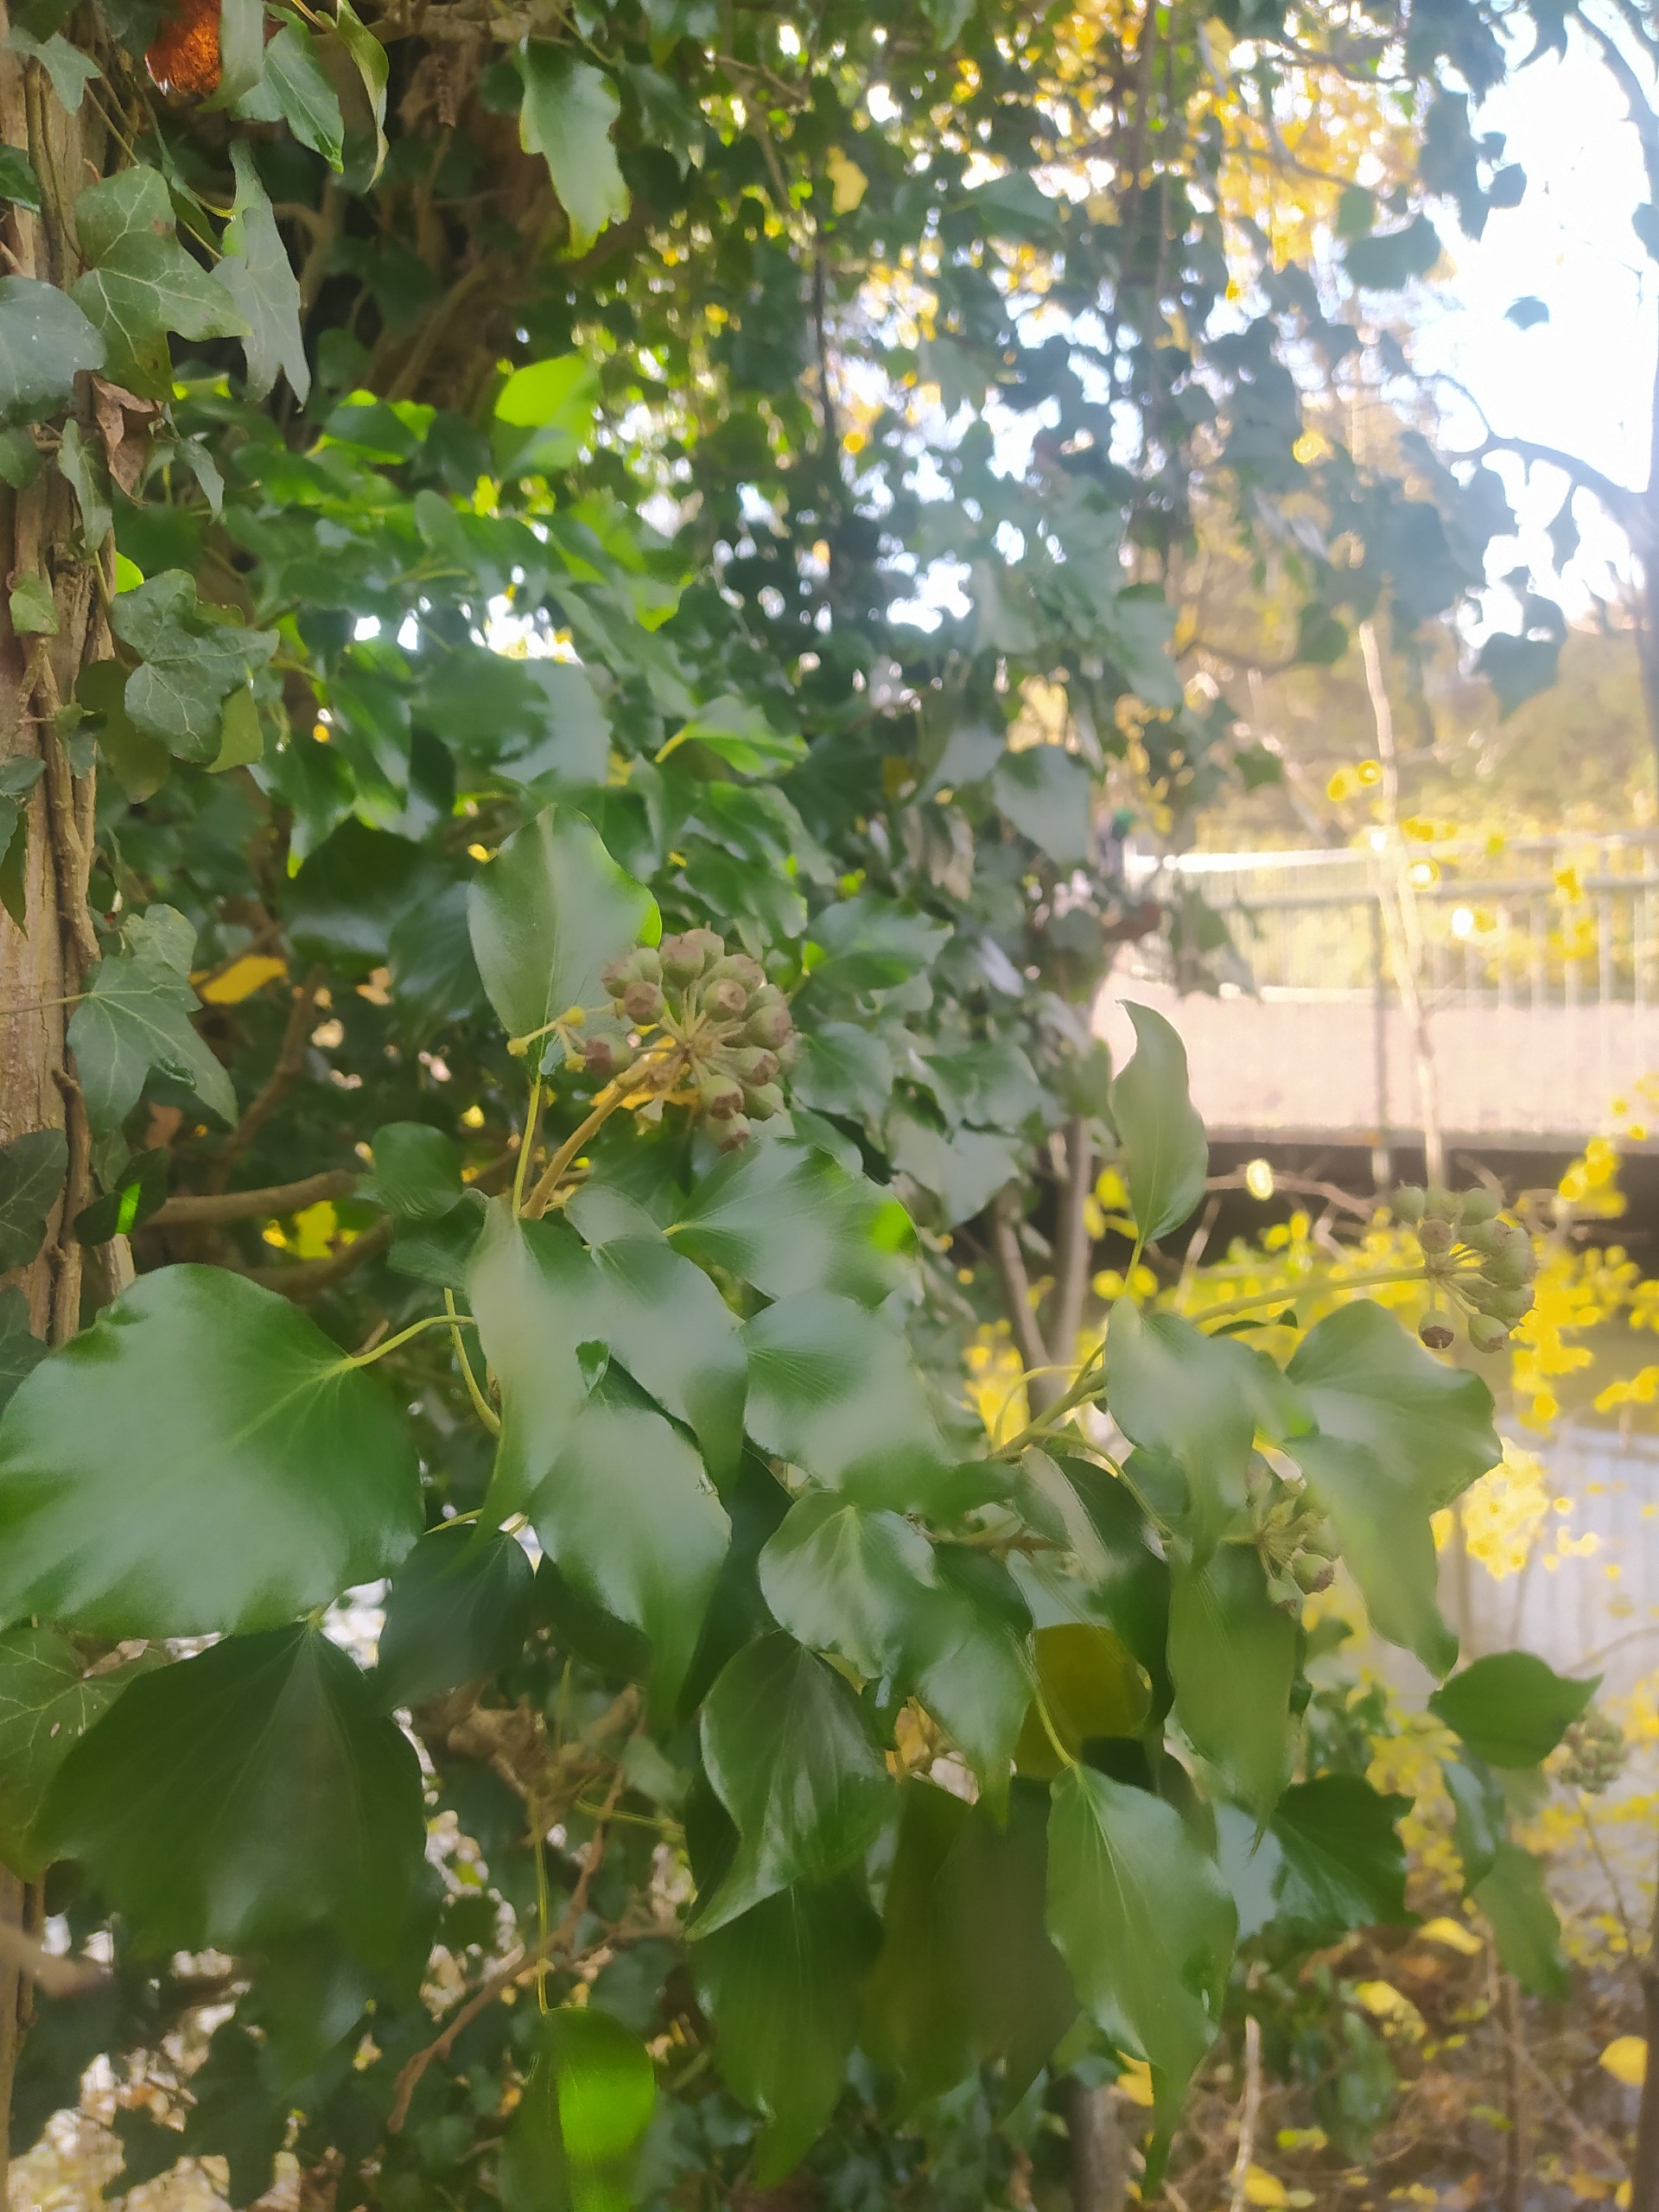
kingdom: Plantae
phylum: Tracheophyta
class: Magnoliopsida
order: Apiales
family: Araliaceae
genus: Hedera
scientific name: Hedera
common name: Vedbendslægten
